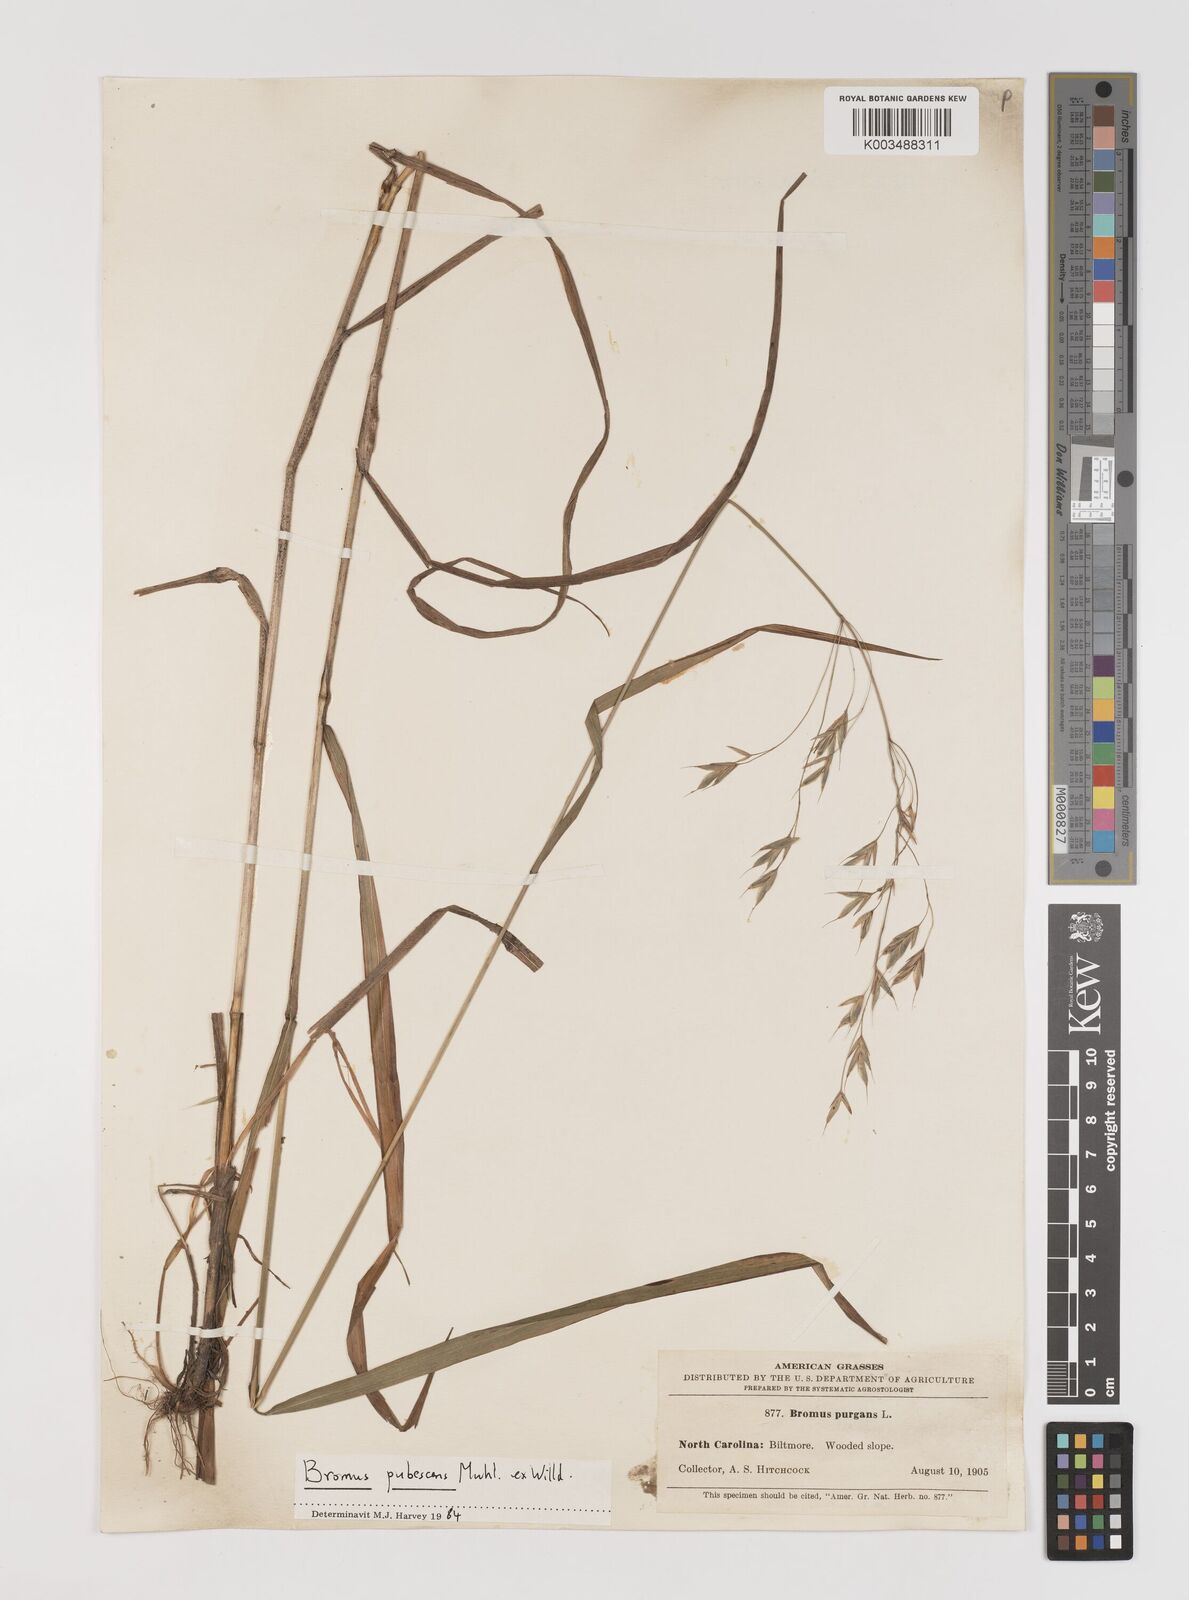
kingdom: Plantae
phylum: Tracheophyta
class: Liliopsida
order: Poales
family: Poaceae
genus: Bromus
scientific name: Bromus pubescens
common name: Hairy wood brome grass
